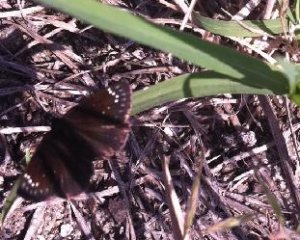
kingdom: Animalia
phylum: Arthropoda
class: Insecta
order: Lepidoptera
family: Hesperiidae
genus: Pholisora
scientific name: Pholisora catullus
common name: Common Sootywing
